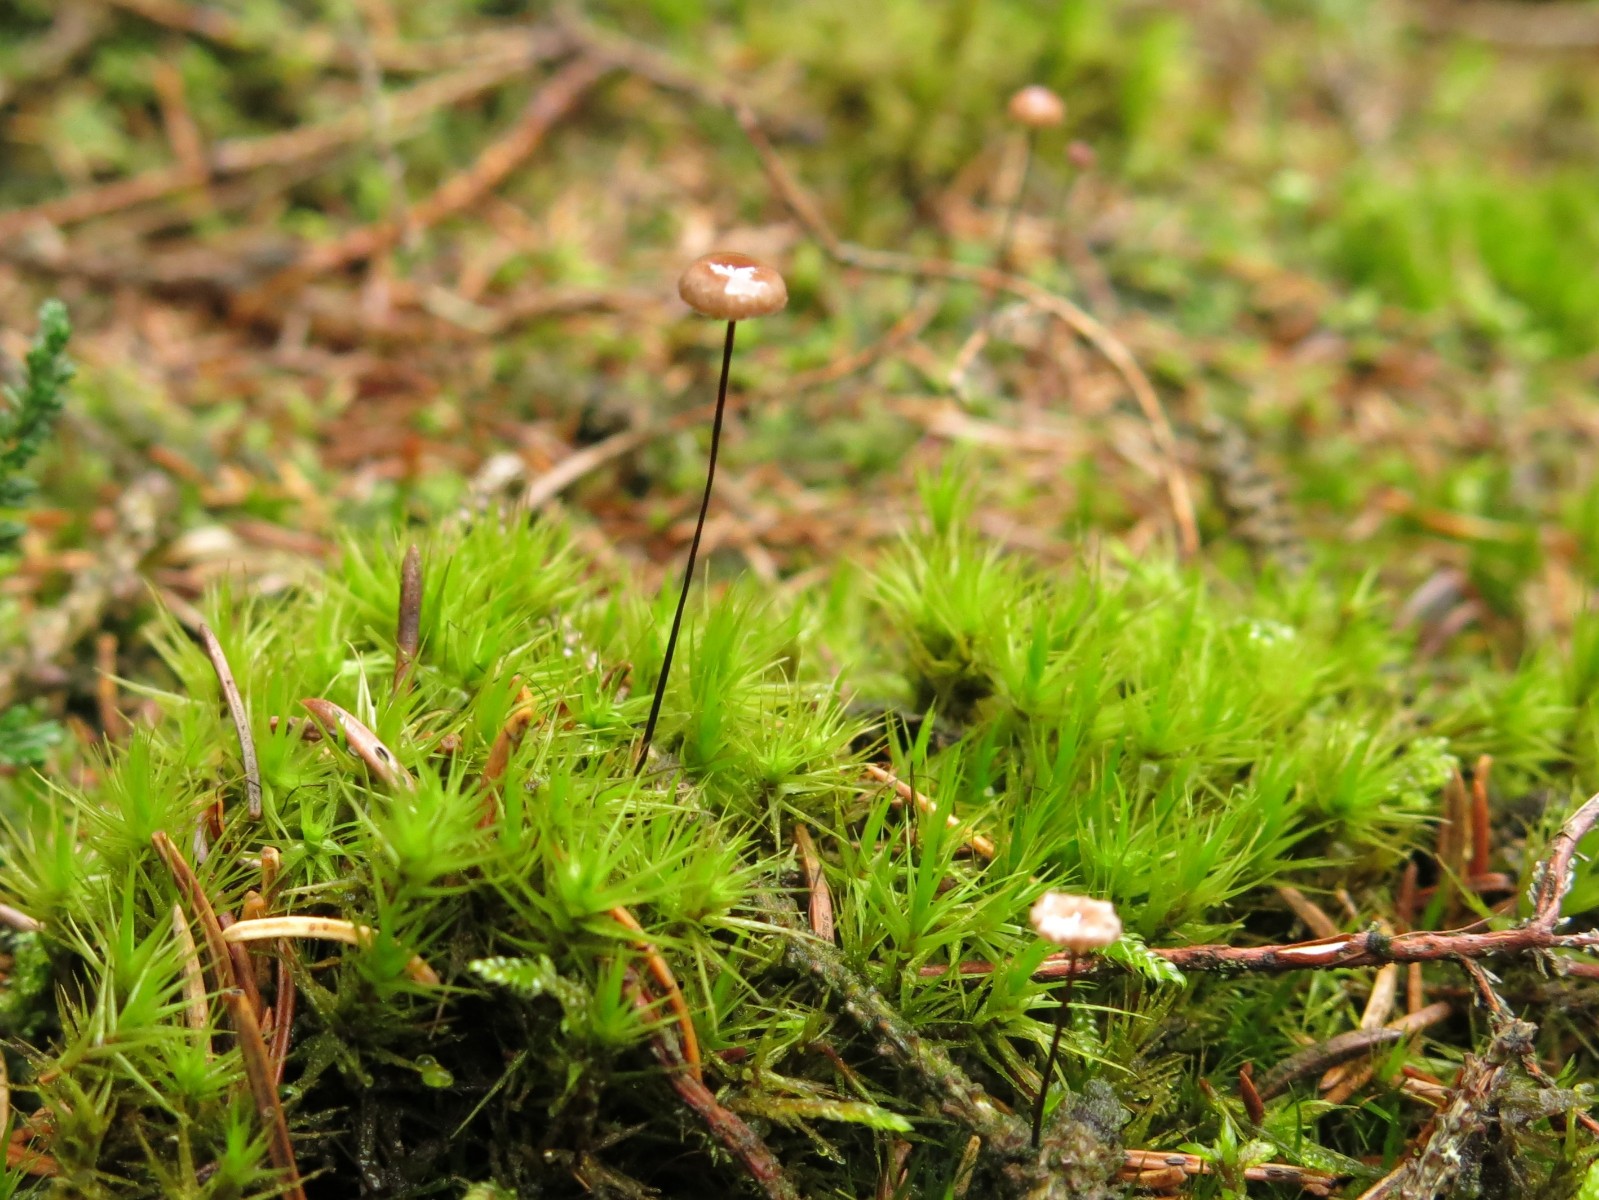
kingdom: Fungi
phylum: Basidiomycota
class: Agaricomycetes
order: Agaricales
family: Omphalotaceae
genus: Gymnopus
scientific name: Gymnopus androsaceus
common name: trådstokket fladhat
